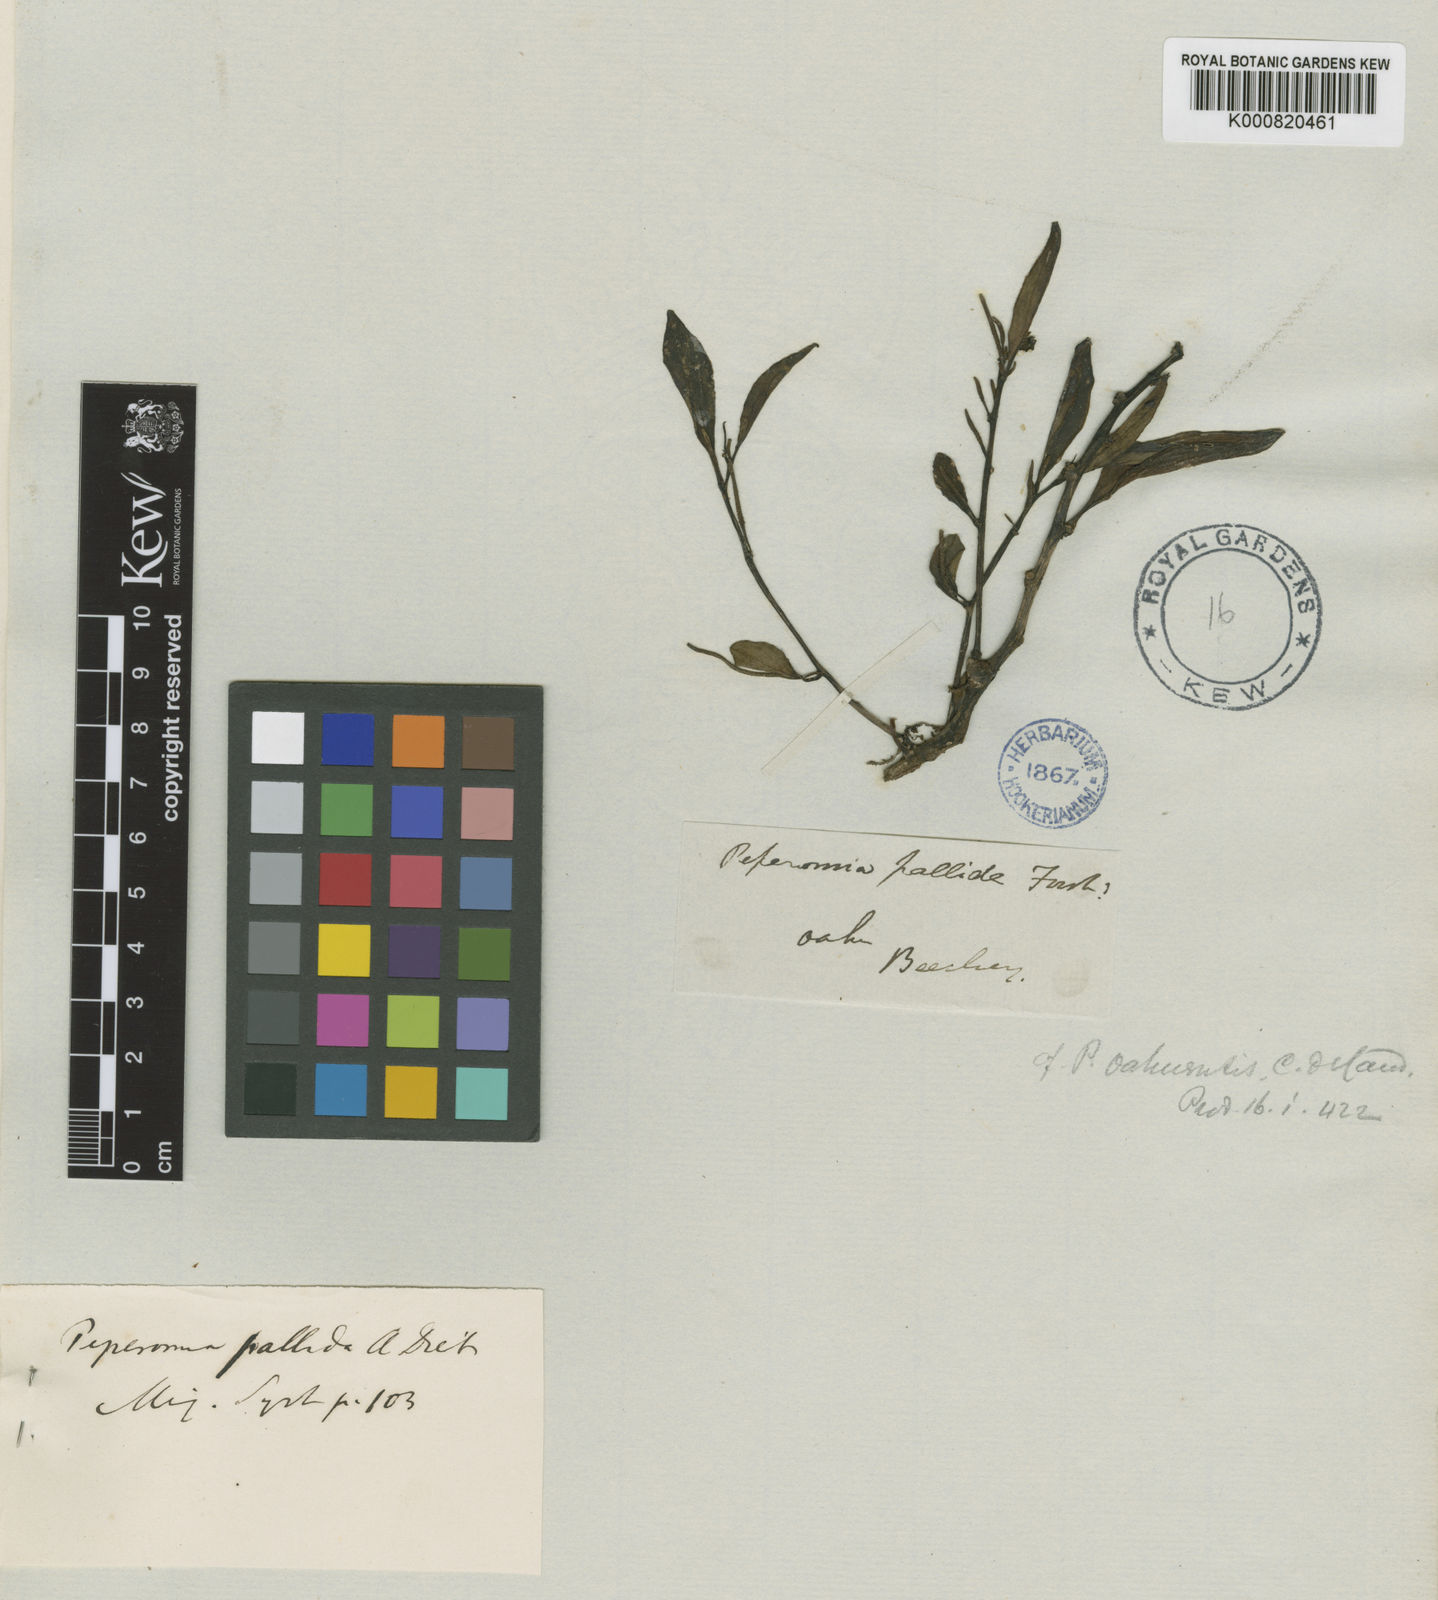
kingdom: Plantae
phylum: Tracheophyta
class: Magnoliopsida
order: Piperales
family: Piperaceae
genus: Peperomia
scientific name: Peperomia oahuensis
